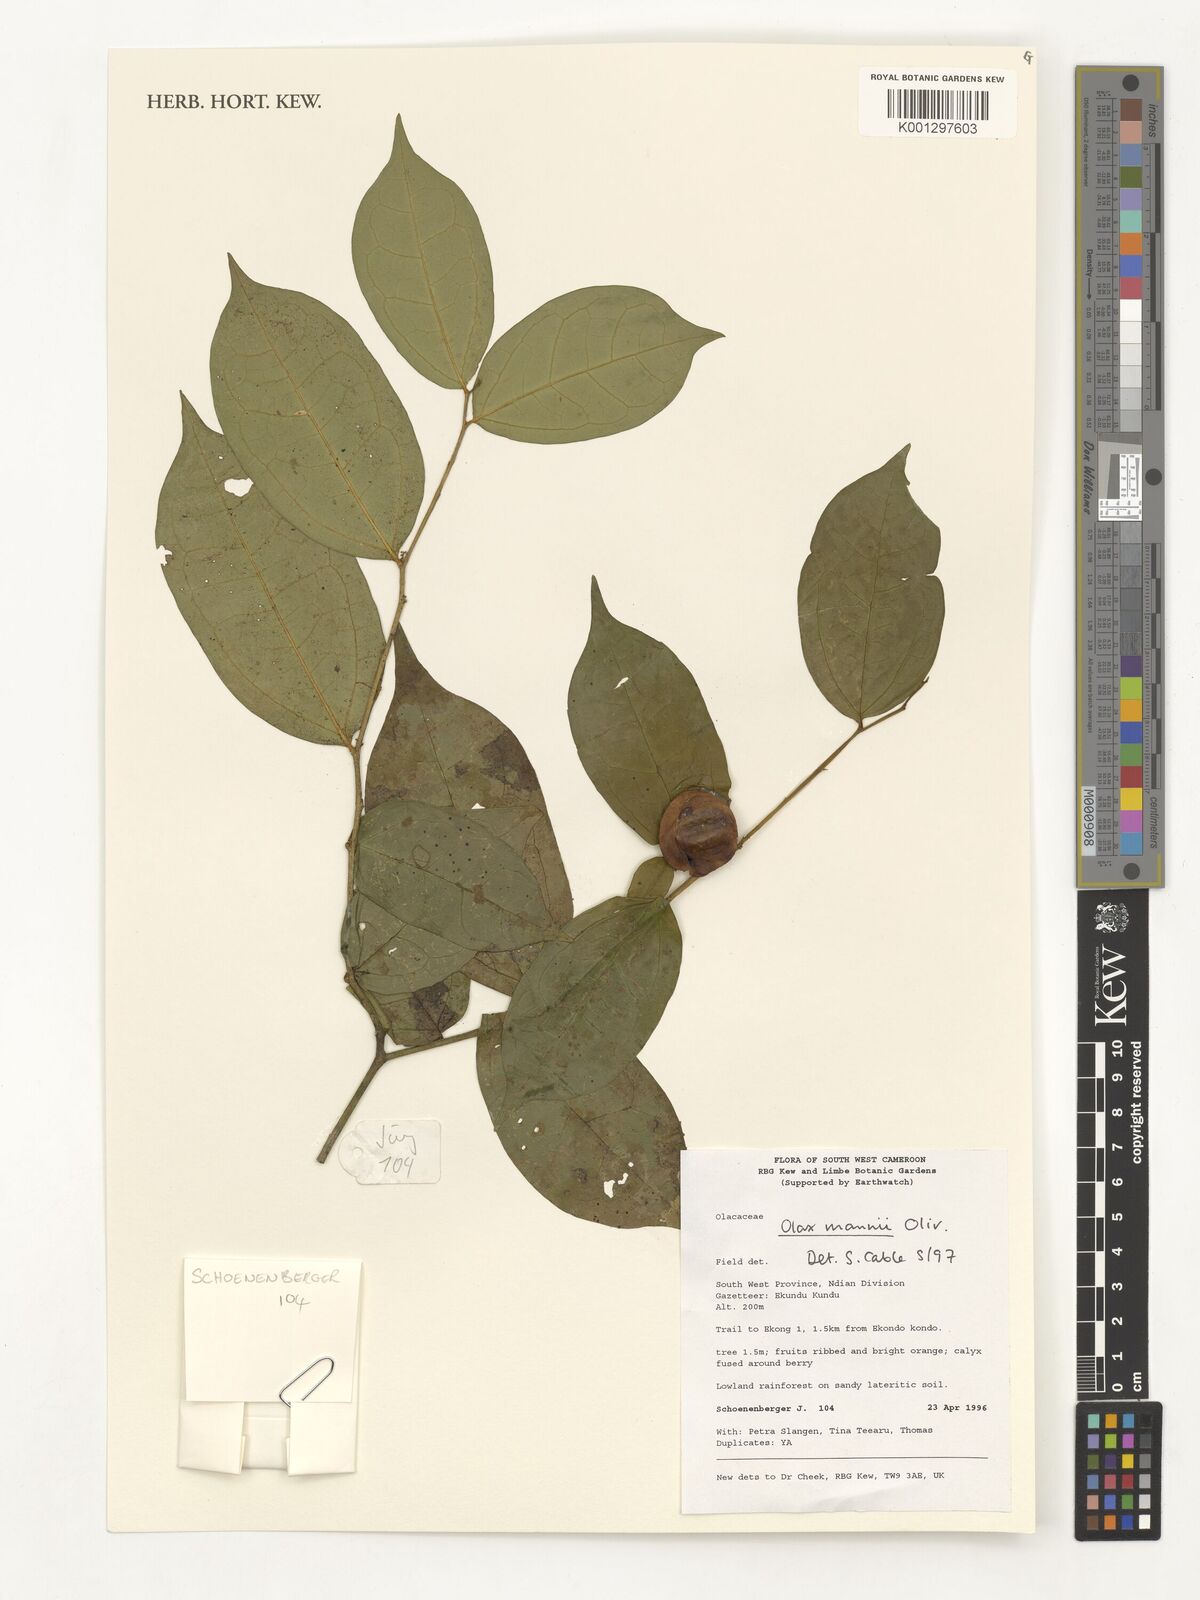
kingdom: Plantae
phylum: Tracheophyta
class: Magnoliopsida
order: Santalales
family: Olacaceae
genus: Olax
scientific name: Olax mannii
